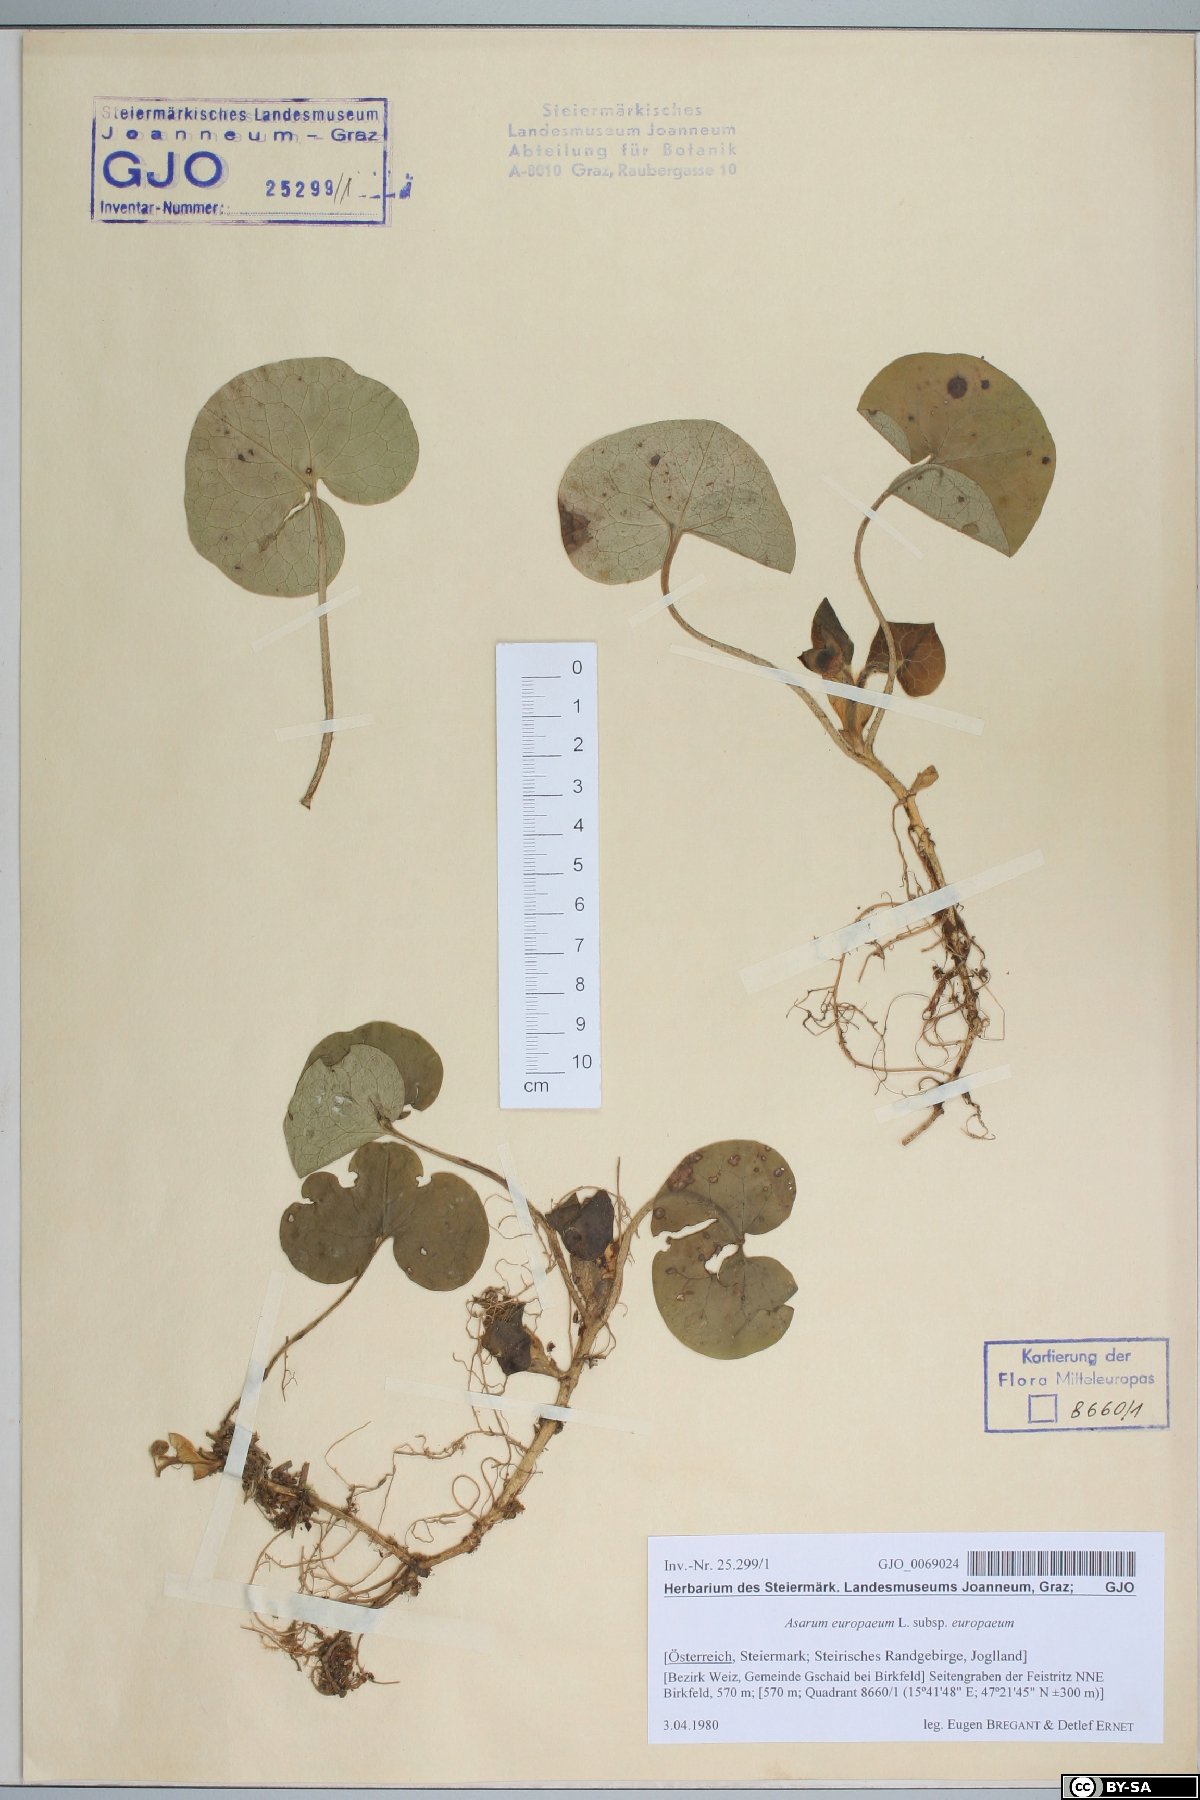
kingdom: Plantae
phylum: Tracheophyta
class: Magnoliopsida
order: Piperales
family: Aristolochiaceae
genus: Asarum
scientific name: Asarum europaeum
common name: Asarabacca
